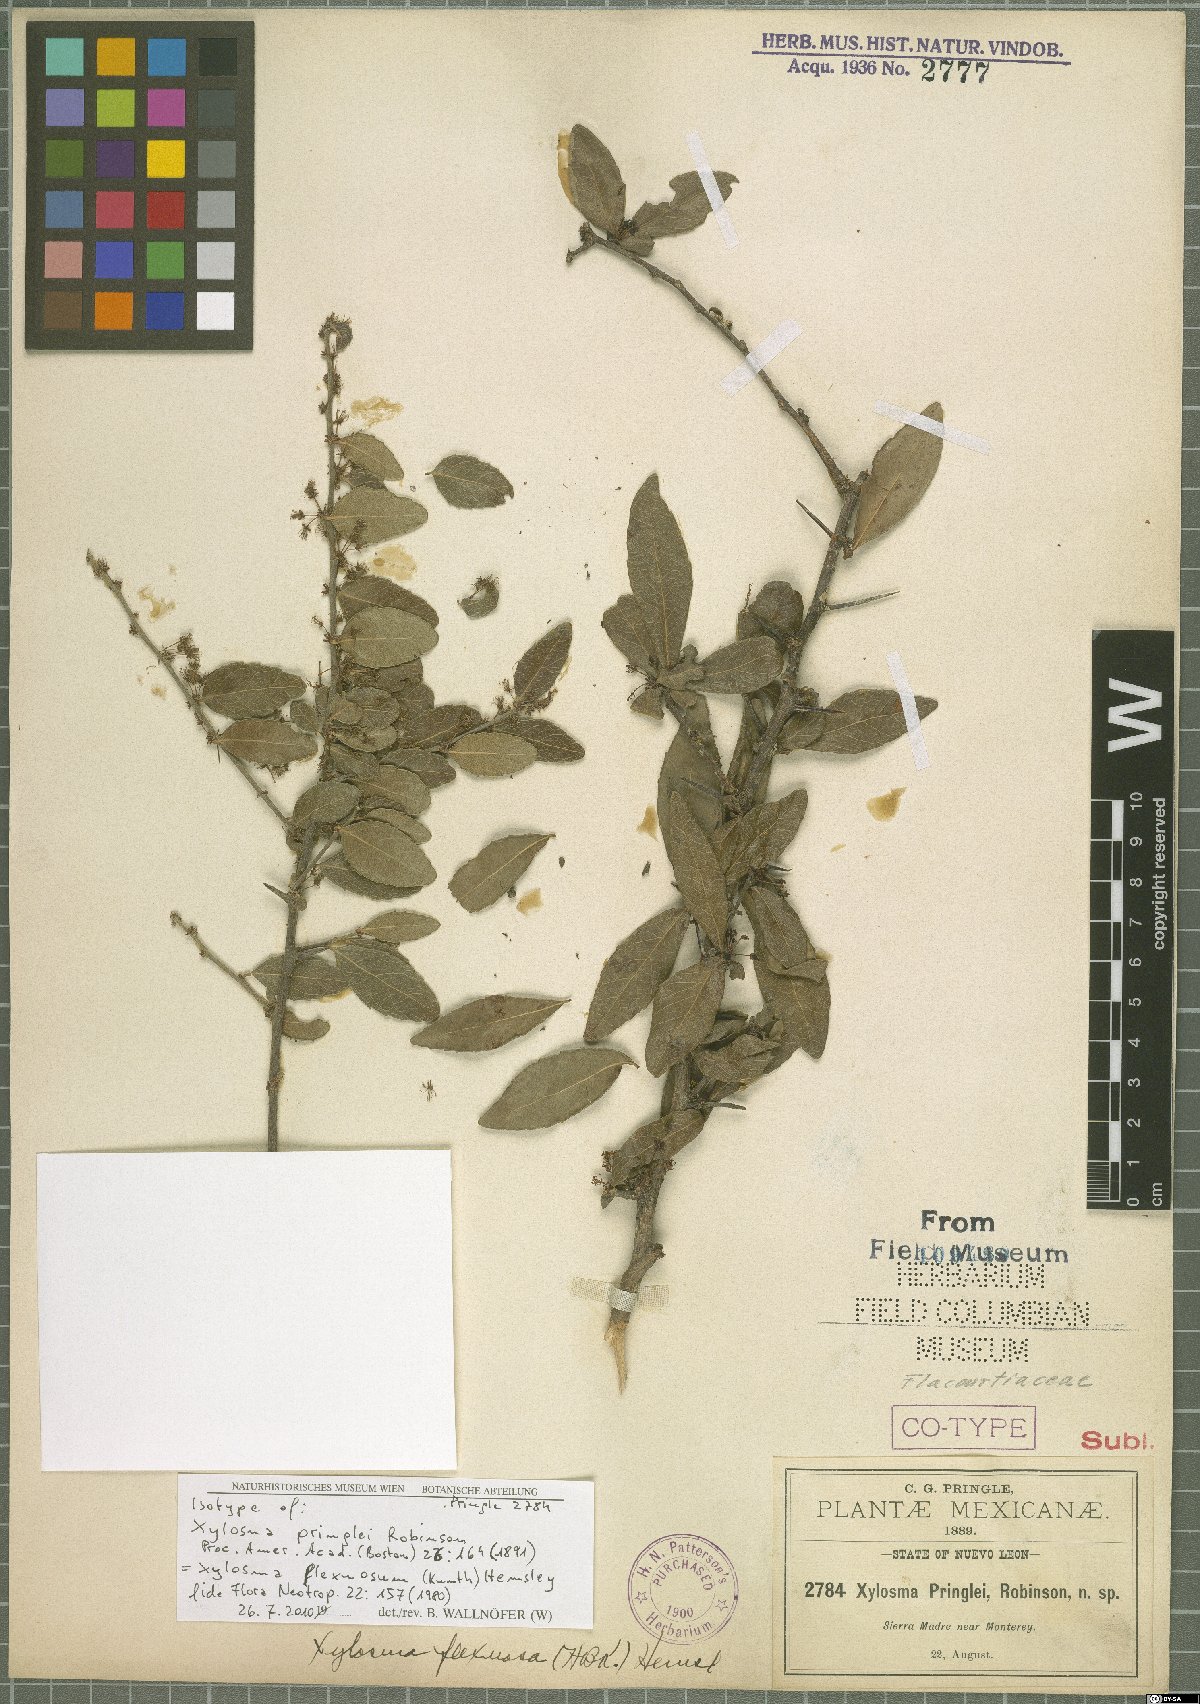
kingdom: Plantae
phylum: Tracheophyta
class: Magnoliopsida
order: Malpighiales
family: Salicaceae
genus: Xylosma
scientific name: Xylosma flexuosa
